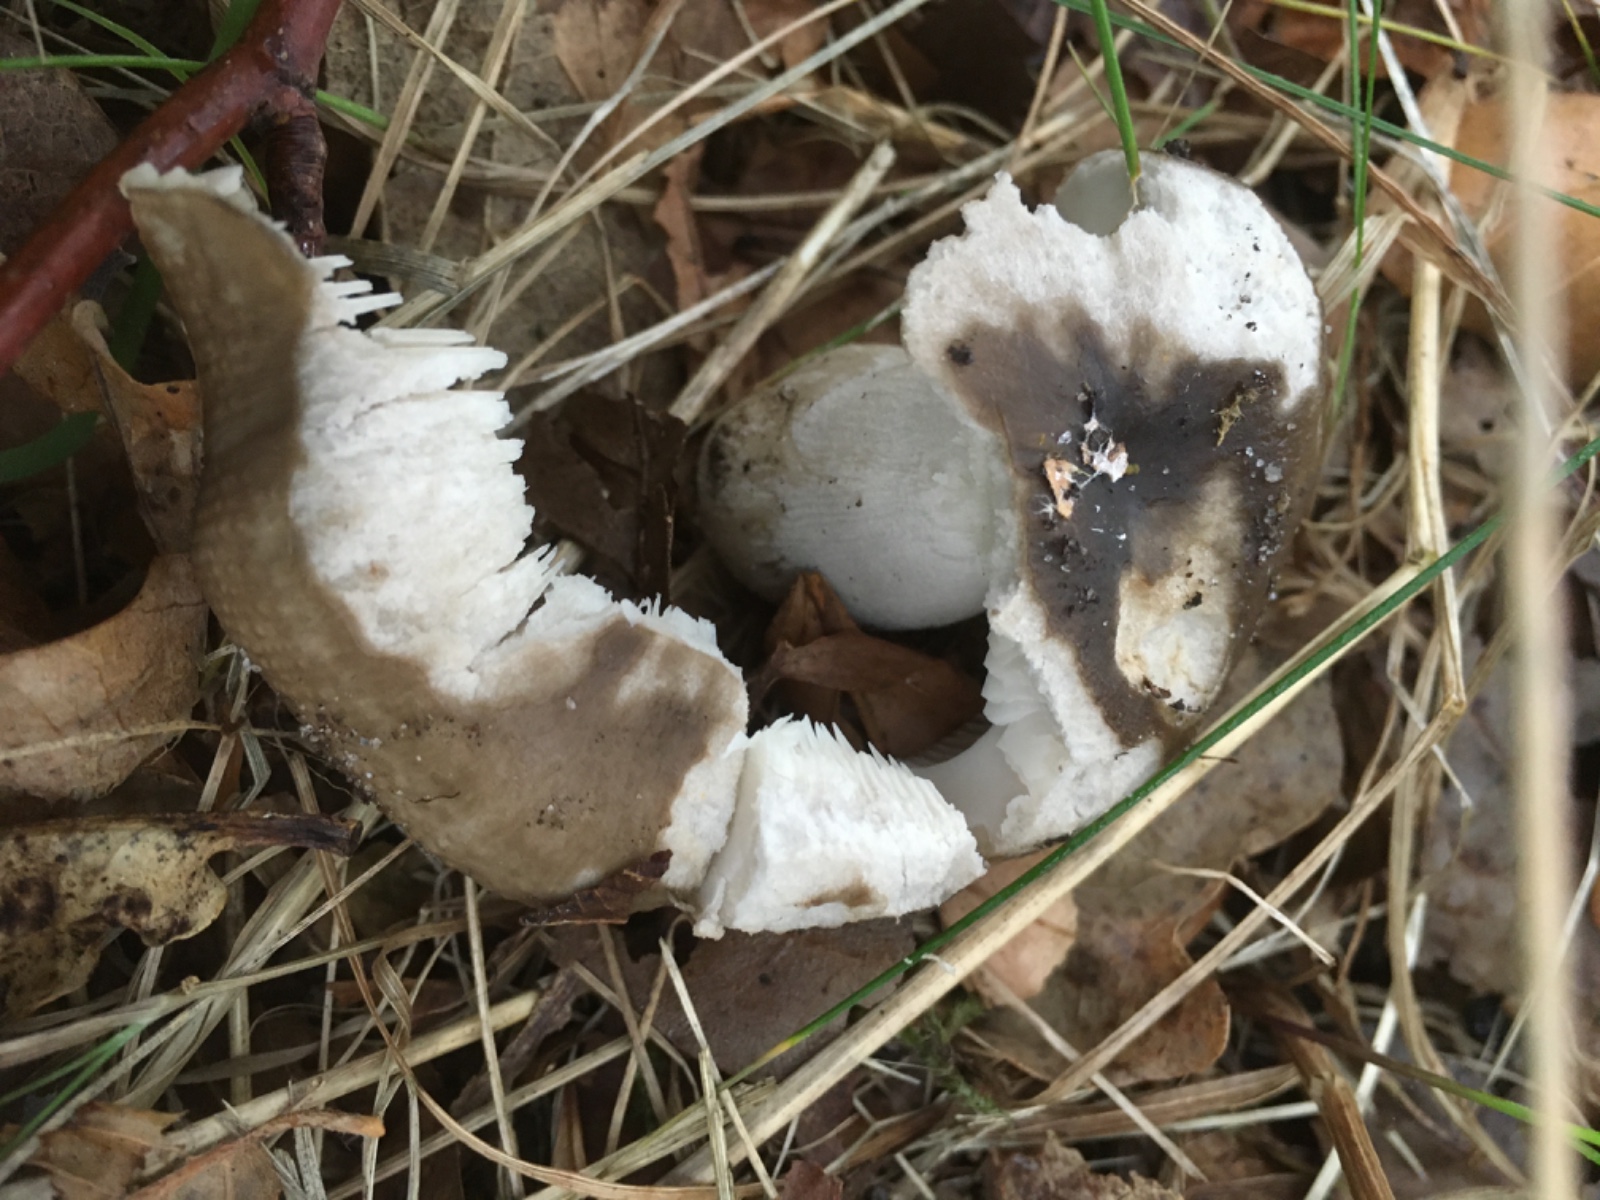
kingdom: Fungi
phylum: Basidiomycota
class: Agaricomycetes
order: Russulales
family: Russulaceae
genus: Russula
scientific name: Russula amoenolens
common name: skarp kam-skørhat
